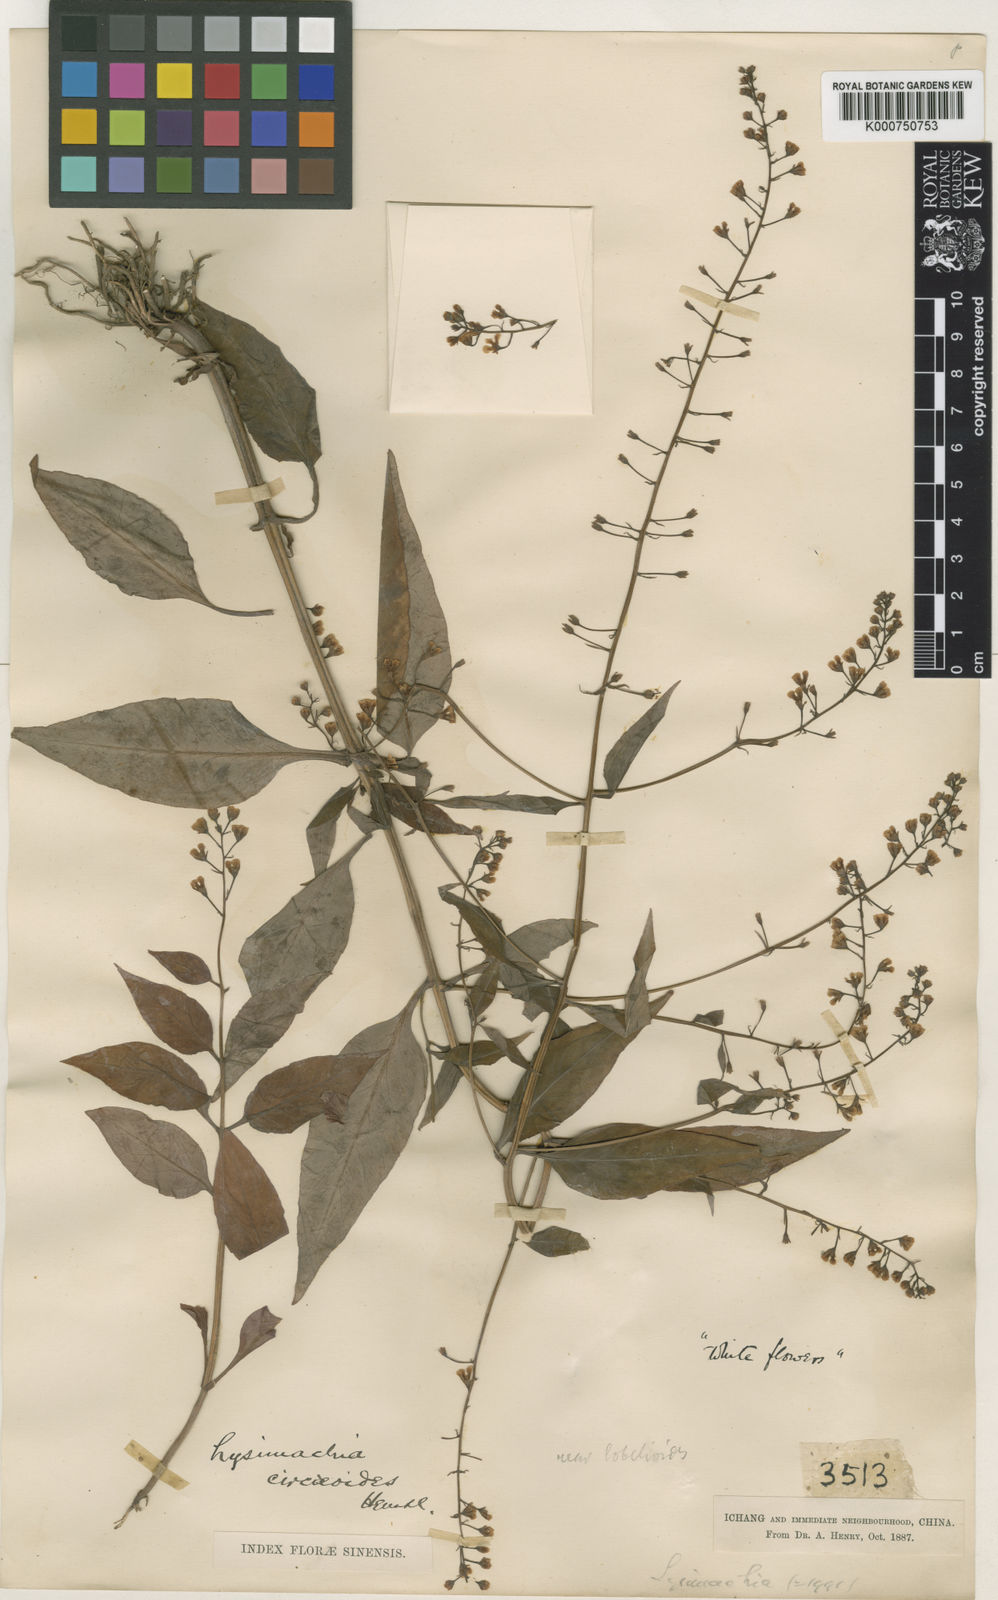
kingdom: Plantae
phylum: Tracheophyta
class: Magnoliopsida
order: Ericales
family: Primulaceae
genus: Lysimachia
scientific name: Lysimachia circaeoides
